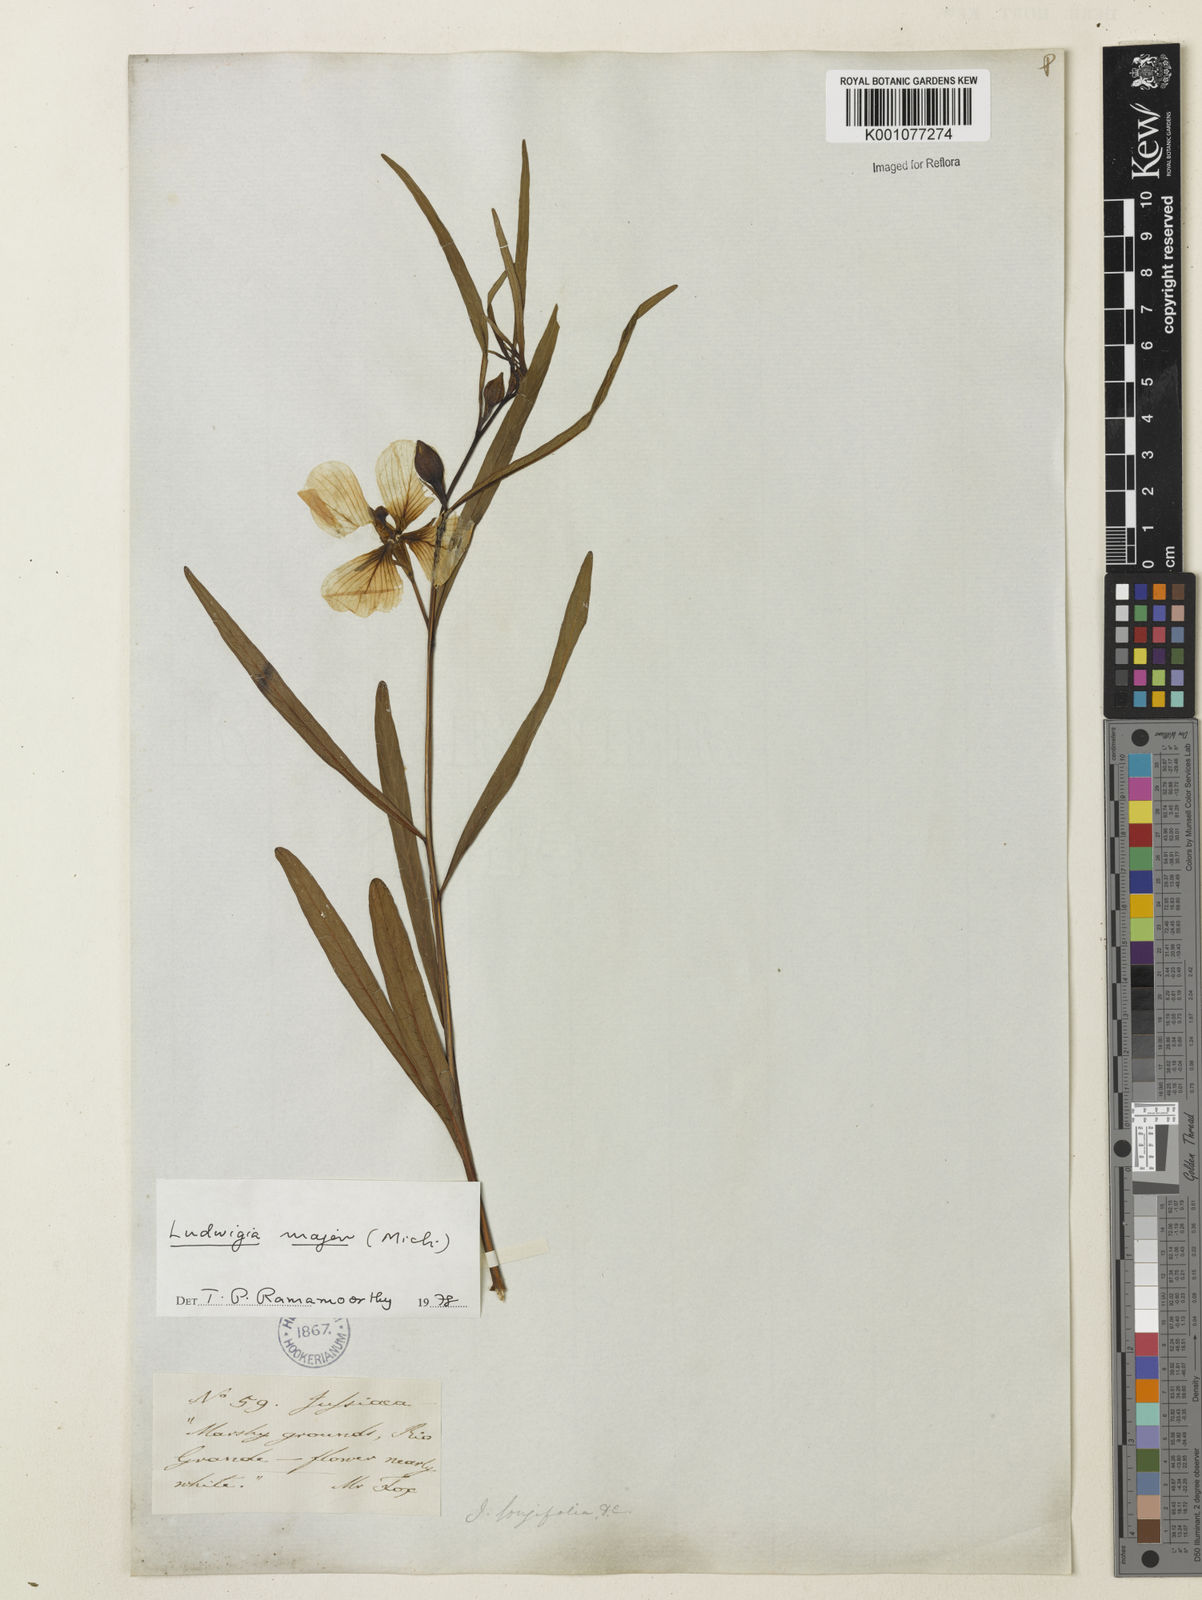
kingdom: Plantae
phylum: Tracheophyta
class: Magnoliopsida
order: Myrtales
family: Onagraceae
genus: Ludwigia
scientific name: Ludwigia major
